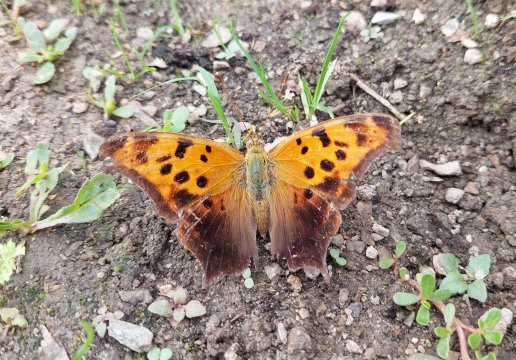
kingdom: Animalia
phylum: Arthropoda
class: Insecta
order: Lepidoptera
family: Nymphalidae
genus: Polygonia
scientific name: Polygonia interrogationis
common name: Question Mark
